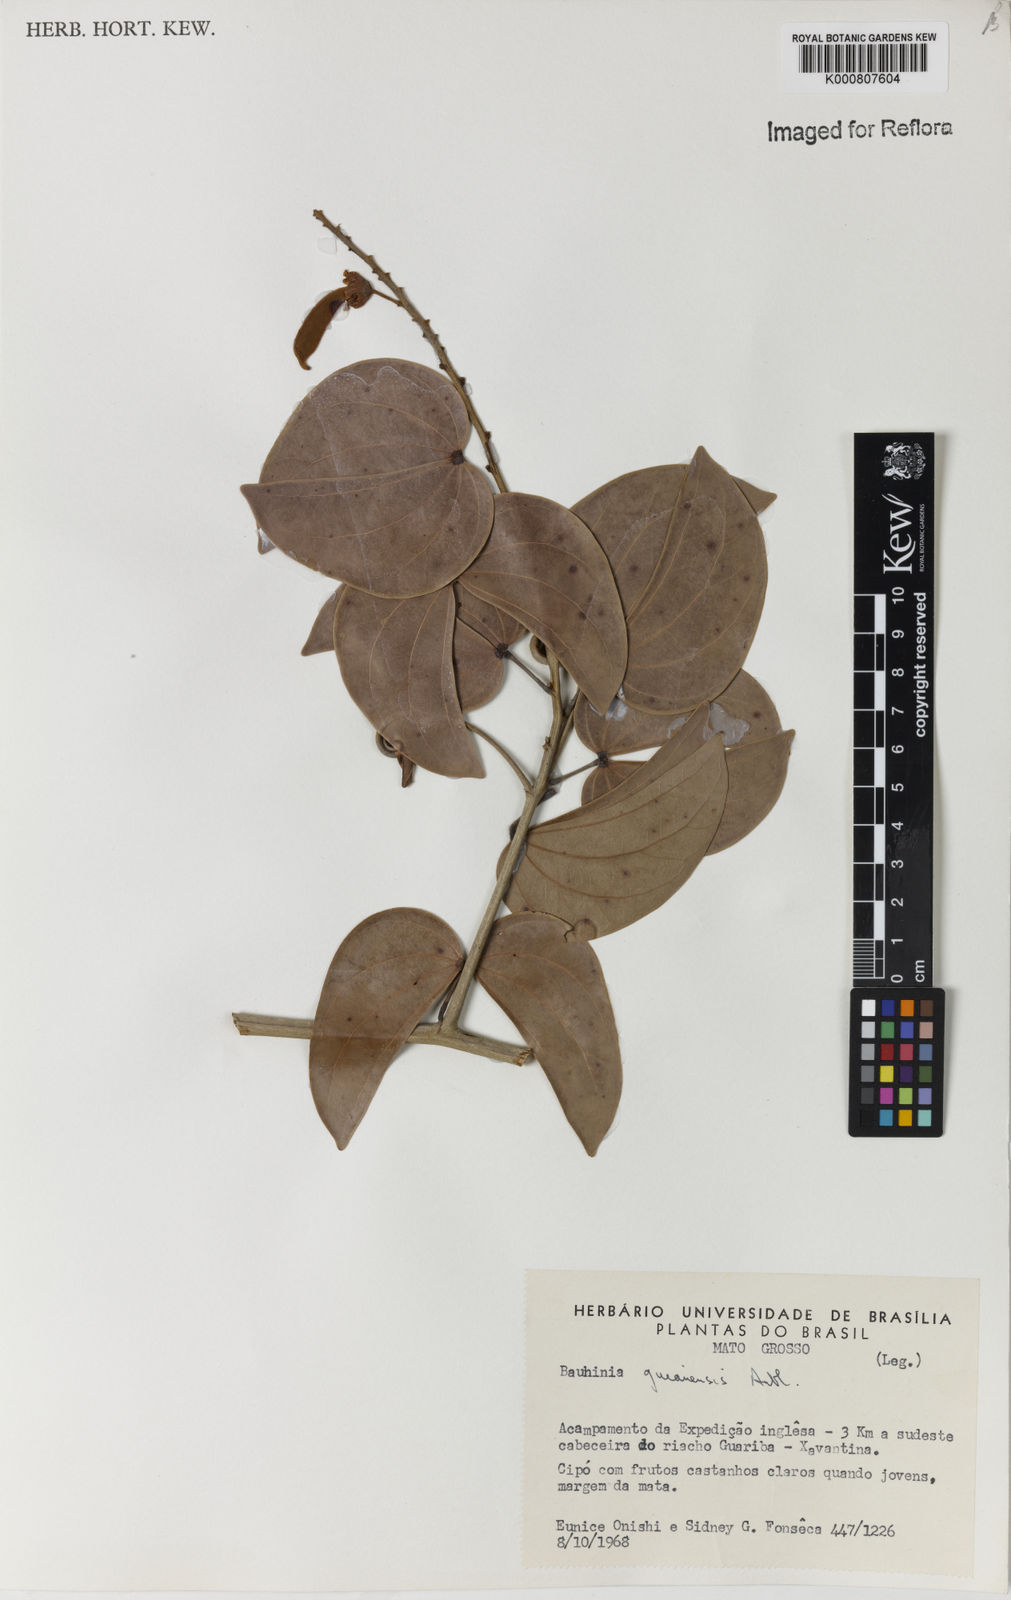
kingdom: Plantae
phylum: Tracheophyta
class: Magnoliopsida
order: Fabales
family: Fabaceae
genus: Schnella
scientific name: Schnella guianensis
